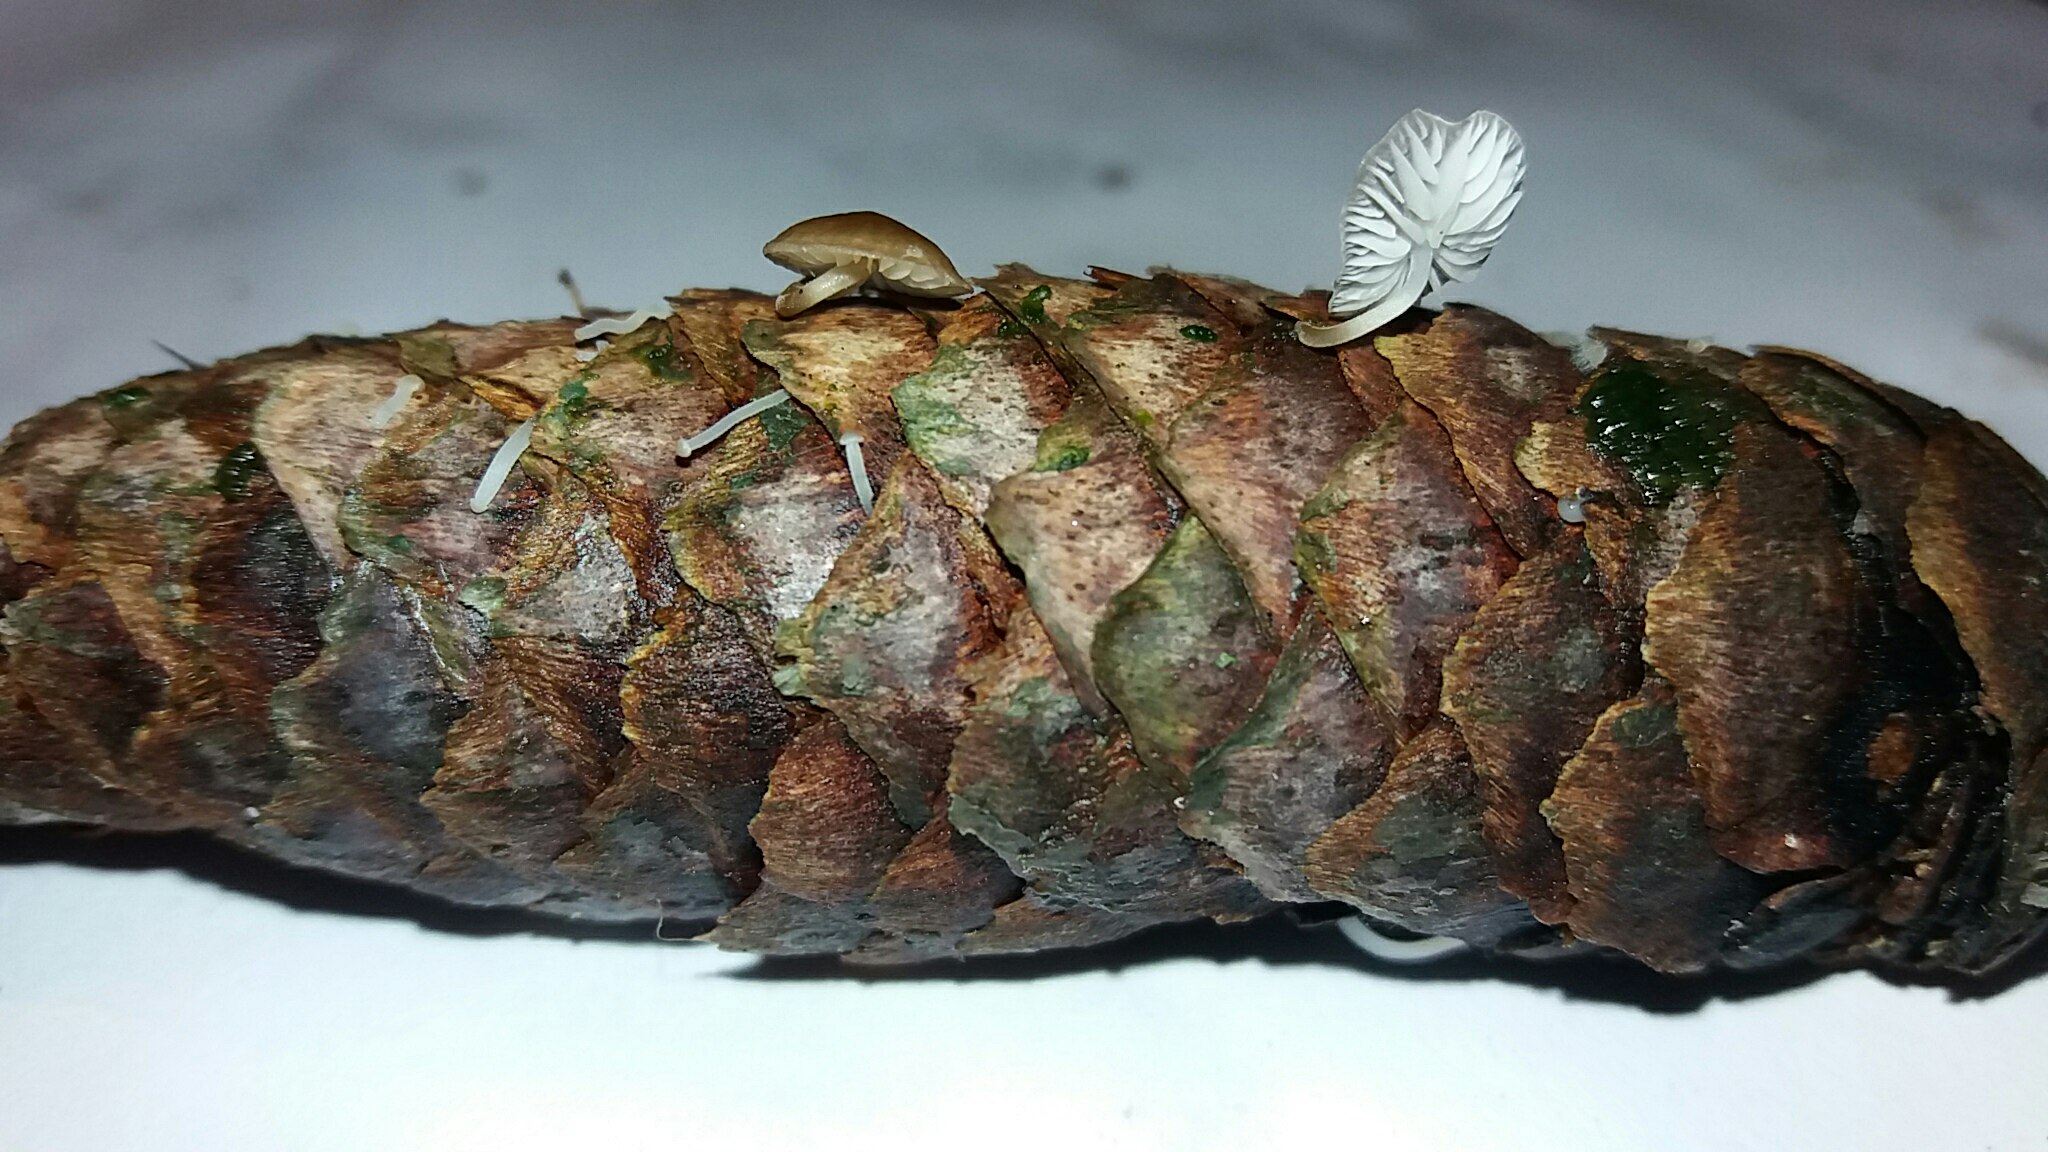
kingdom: Fungi
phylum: Basidiomycota
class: Agaricomycetes
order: Agaricales
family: Physalacriaceae
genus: Strobilurus
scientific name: Strobilurus esculentus
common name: gran-koglehat
